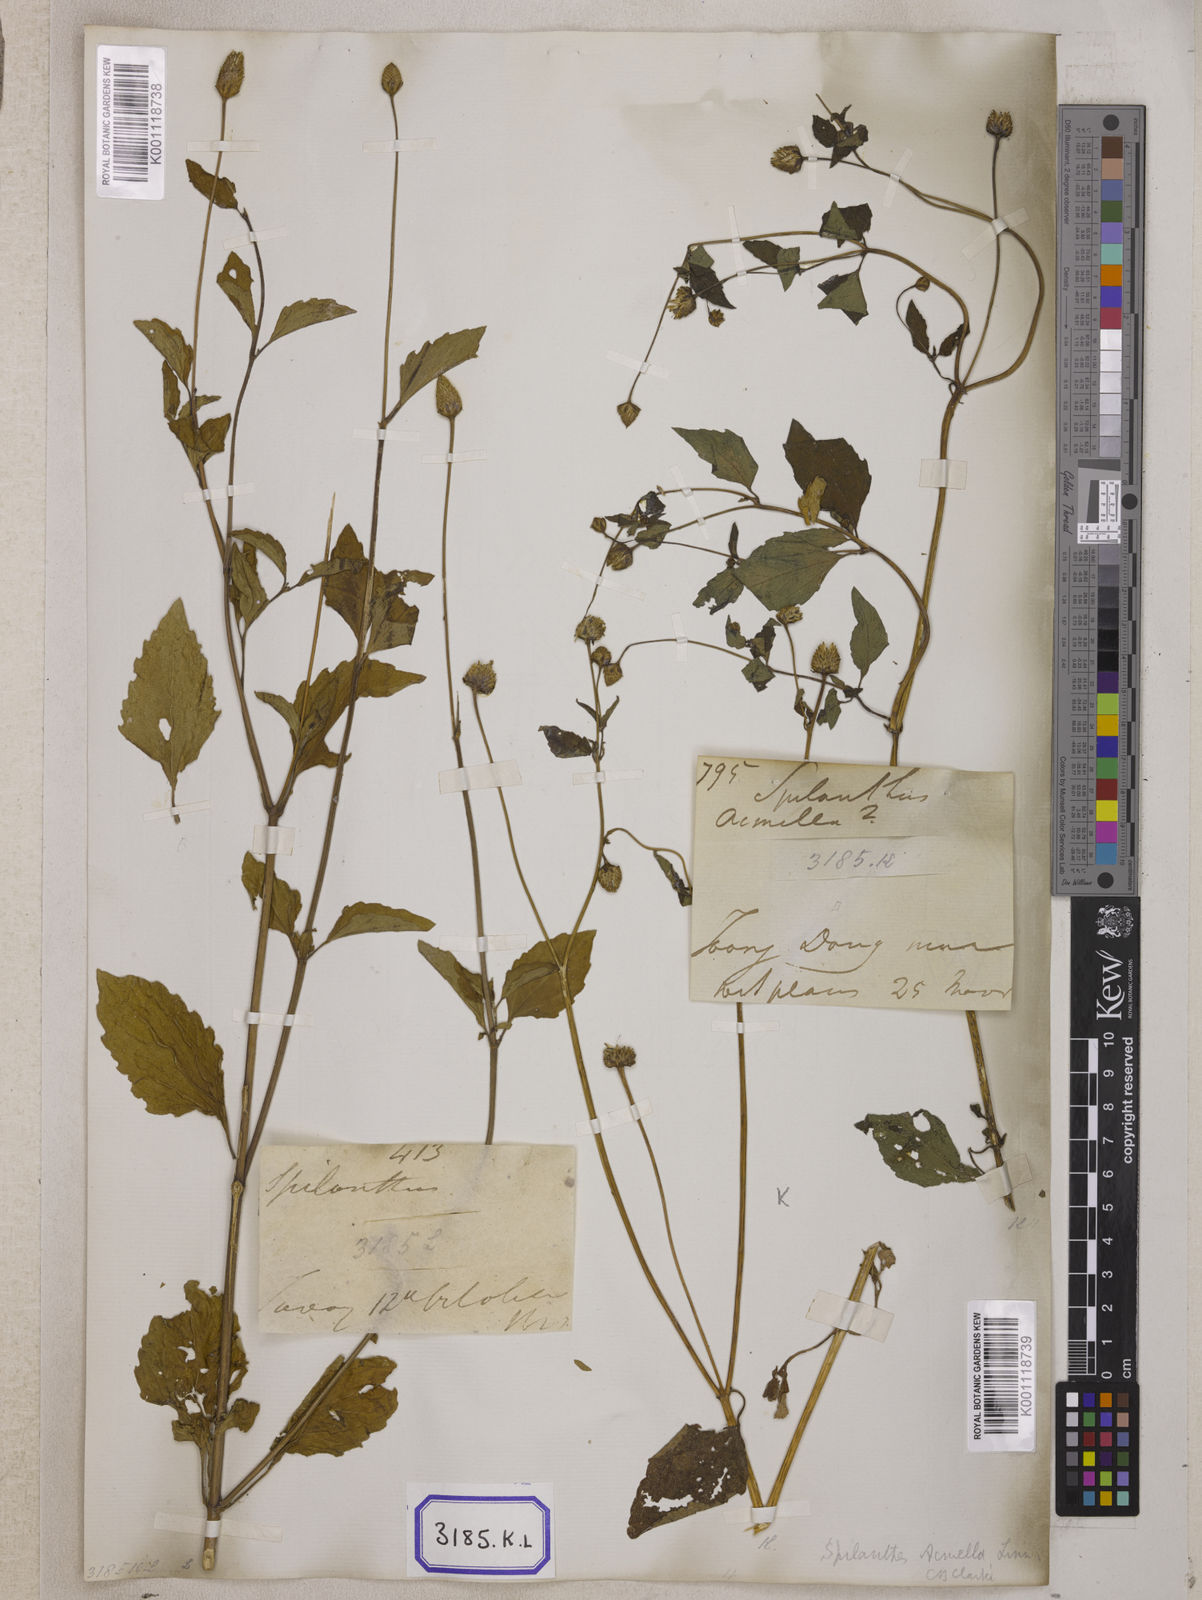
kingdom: Plantae
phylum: Tracheophyta
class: Magnoliopsida
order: Asterales
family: Asteraceae
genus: Blainvillea
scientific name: Blainvillea acmella
